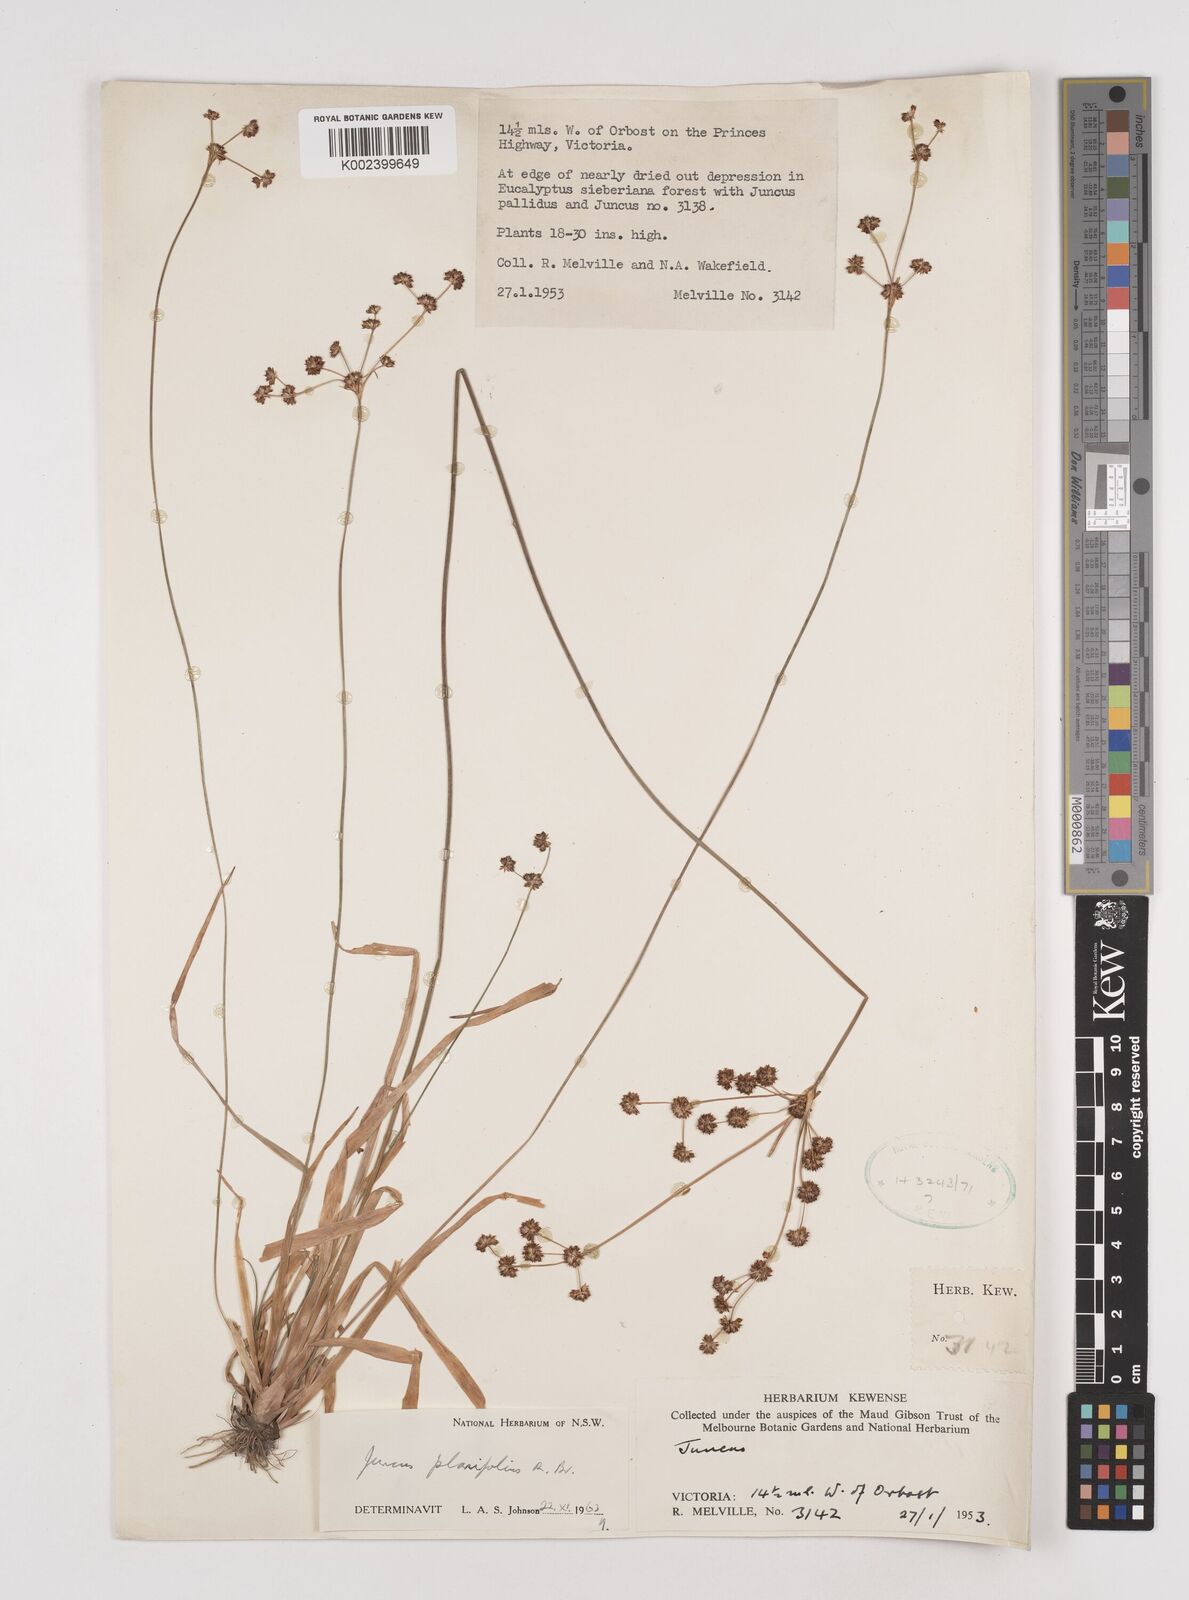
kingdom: Plantae
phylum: Tracheophyta
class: Liliopsida
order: Poales
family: Juncaceae
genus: Juncus
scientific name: Juncus planifolius
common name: Broadleaf rush
